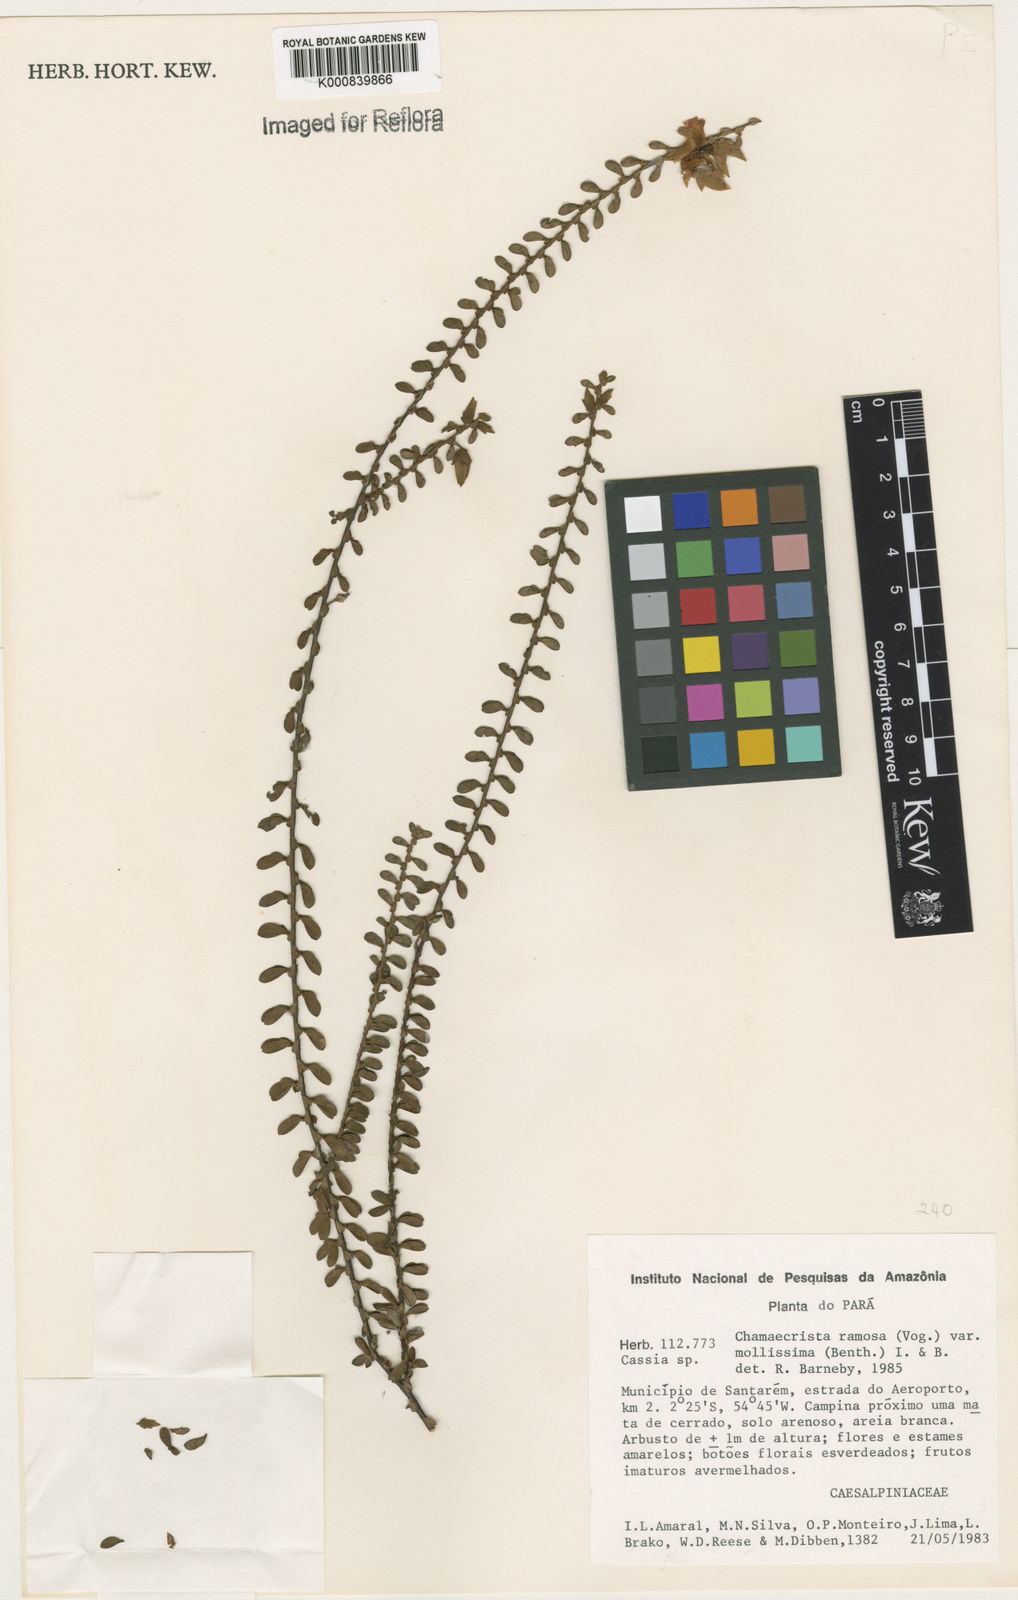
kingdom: Plantae
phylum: Tracheophyta
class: Magnoliopsida
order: Fabales
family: Fabaceae
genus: Chamaecrista
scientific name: Chamaecrista ramosa
